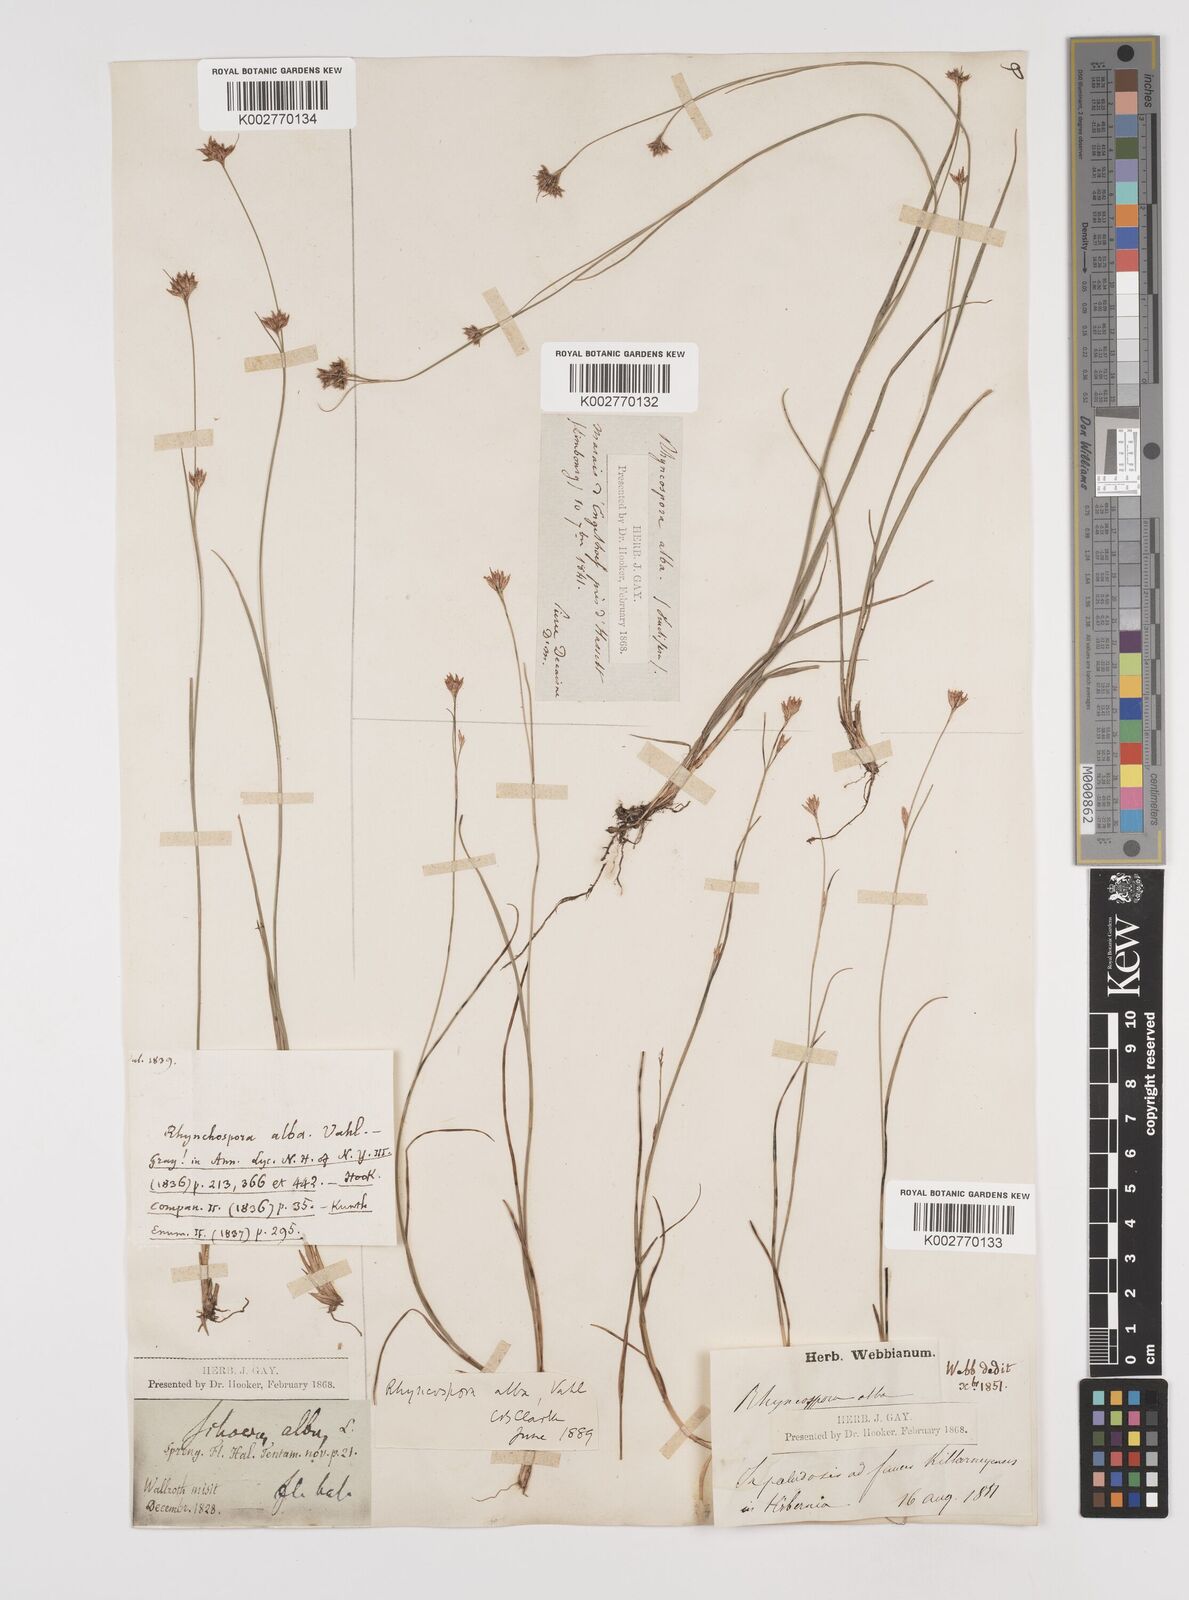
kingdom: Plantae
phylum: Tracheophyta
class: Liliopsida
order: Poales
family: Cyperaceae
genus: Rhynchospora
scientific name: Rhynchospora alba
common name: White beak-sedge
